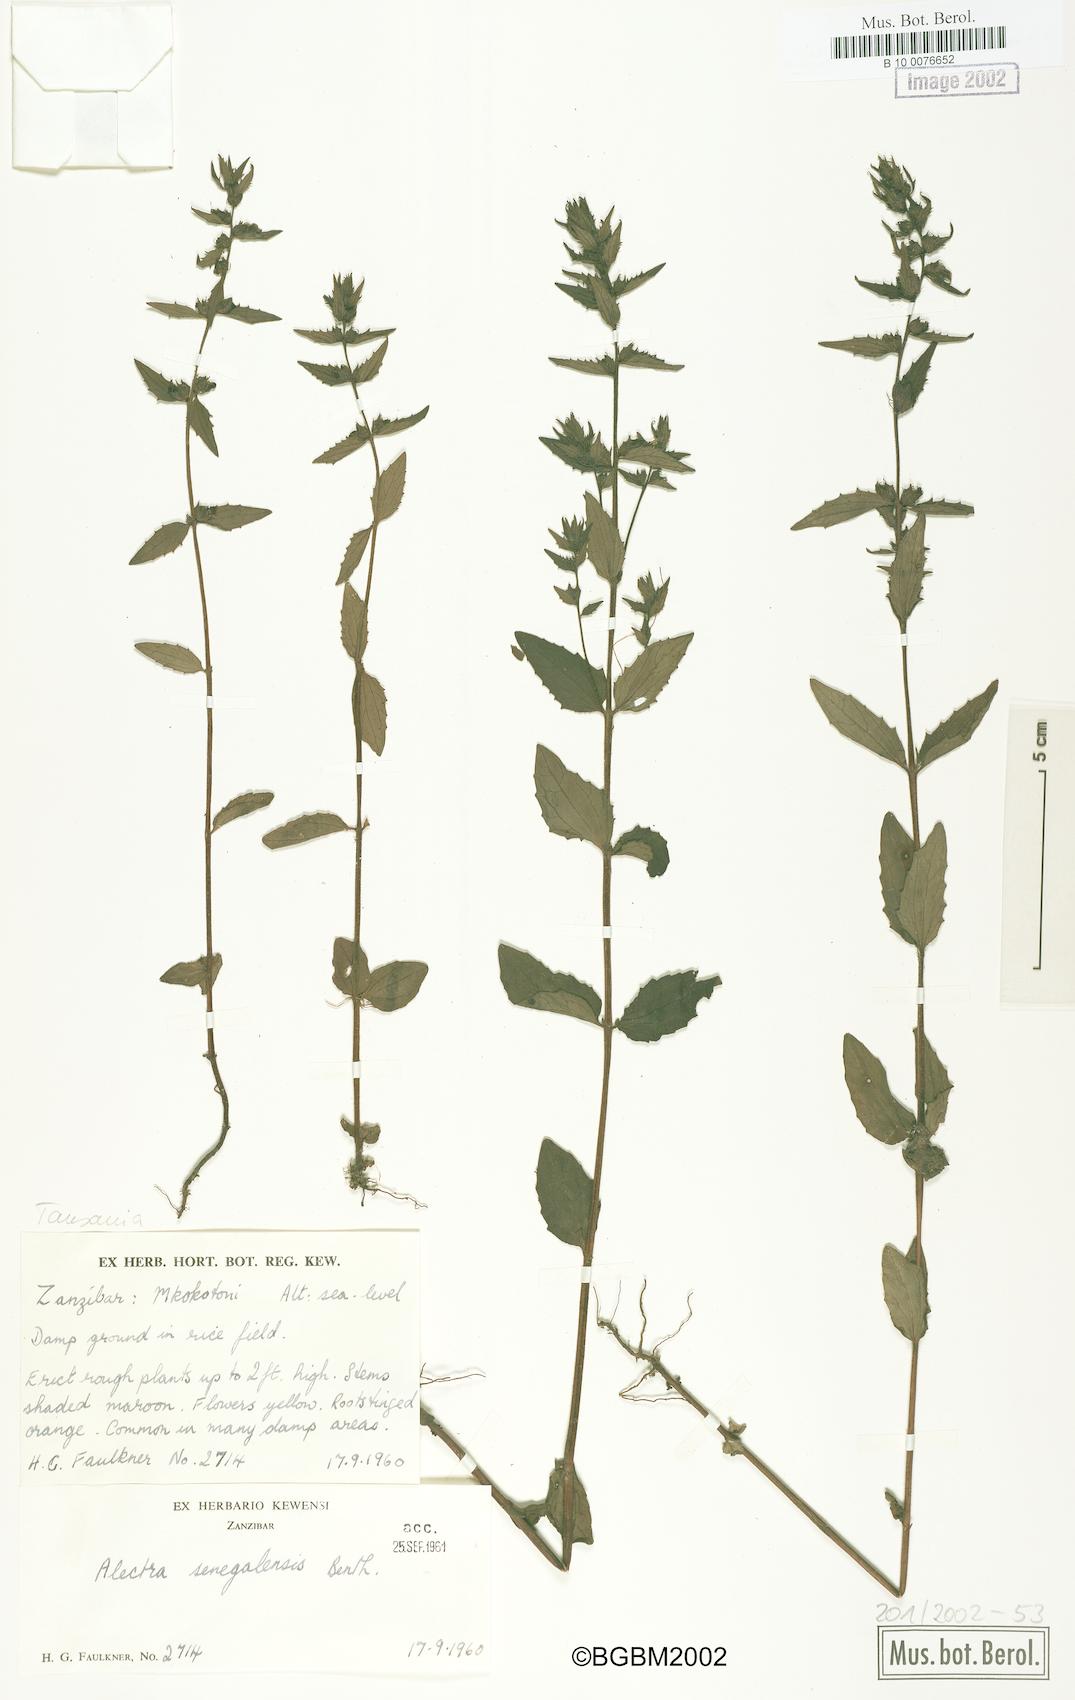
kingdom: Plantae
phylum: Tracheophyta
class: Magnoliopsida
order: Lamiales
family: Orobanchaceae
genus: Alectra
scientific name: Alectra sessiliflora
